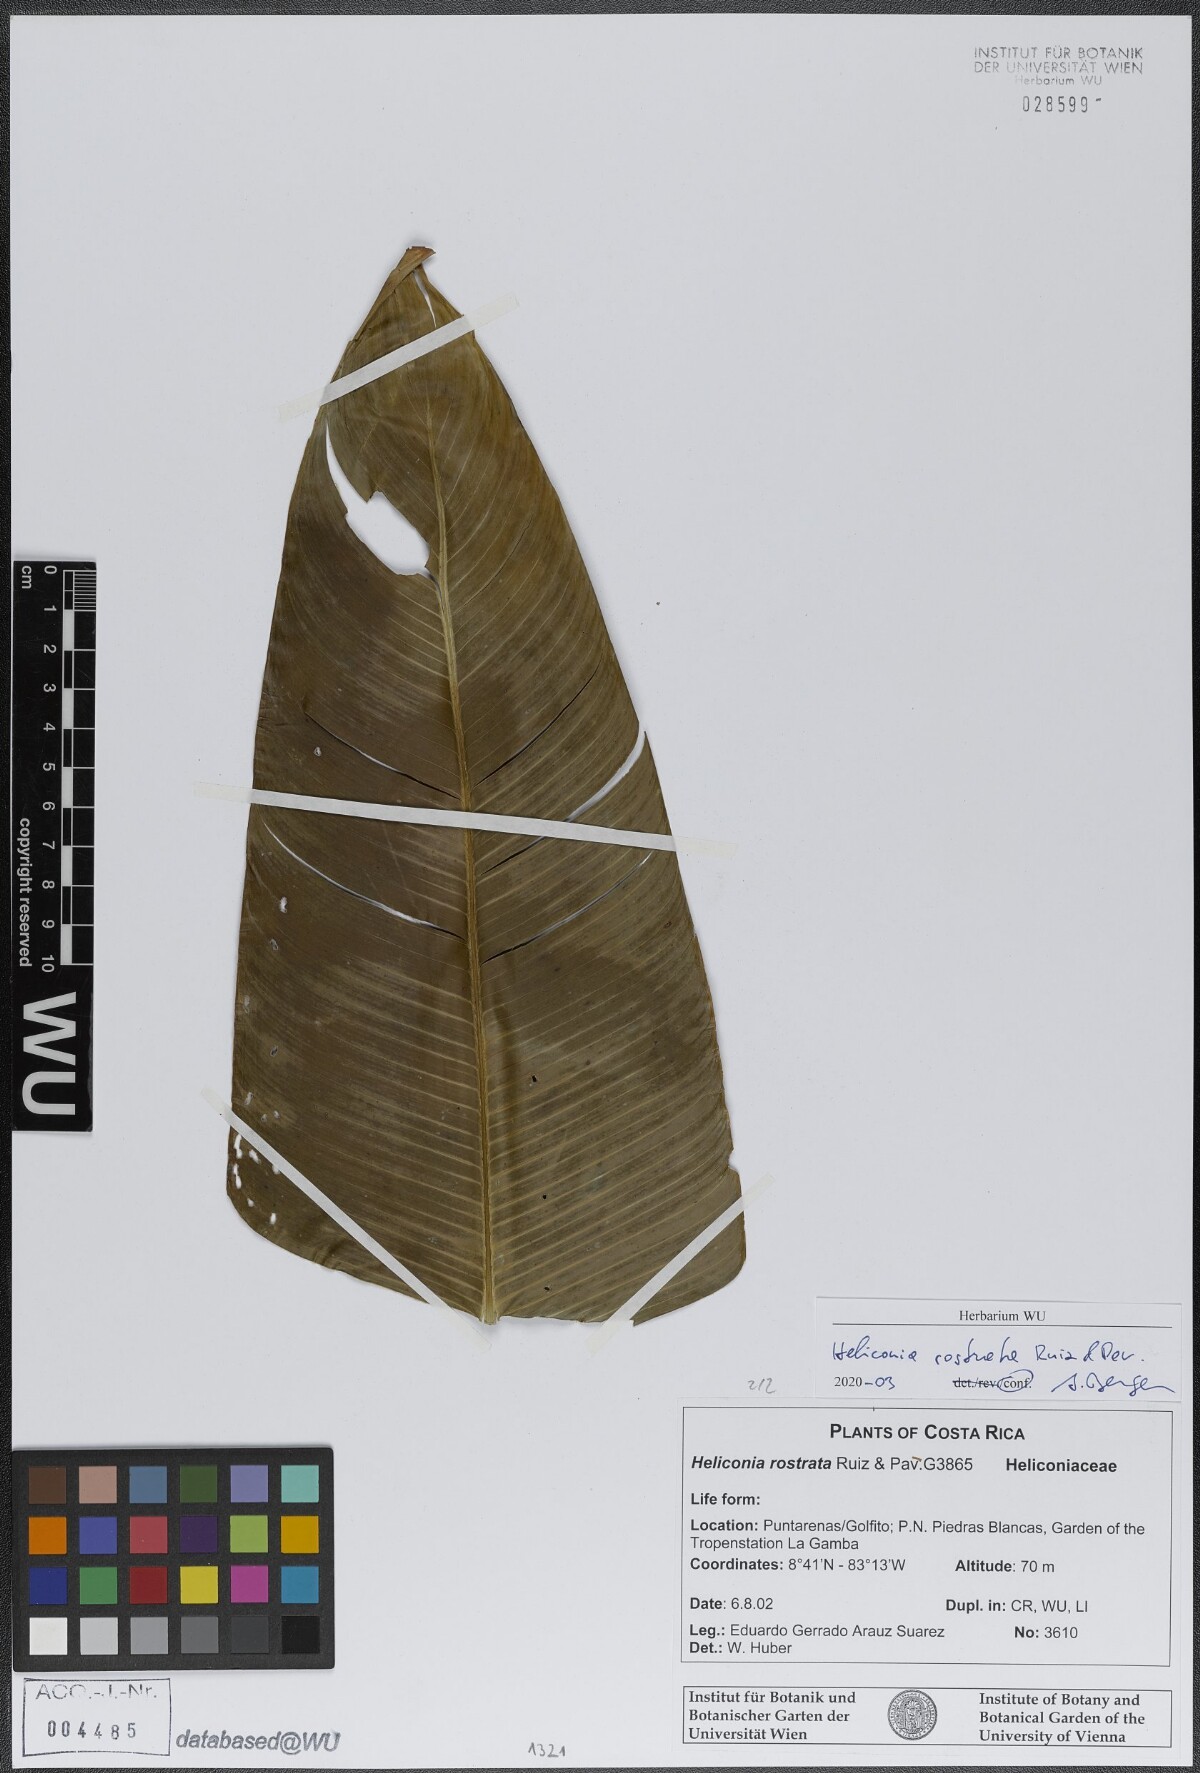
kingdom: Plantae
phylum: Tracheophyta
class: Liliopsida
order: Zingiberales
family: Heliconiaceae
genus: Heliconia
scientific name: Heliconia rostrata
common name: False bird of paradise
